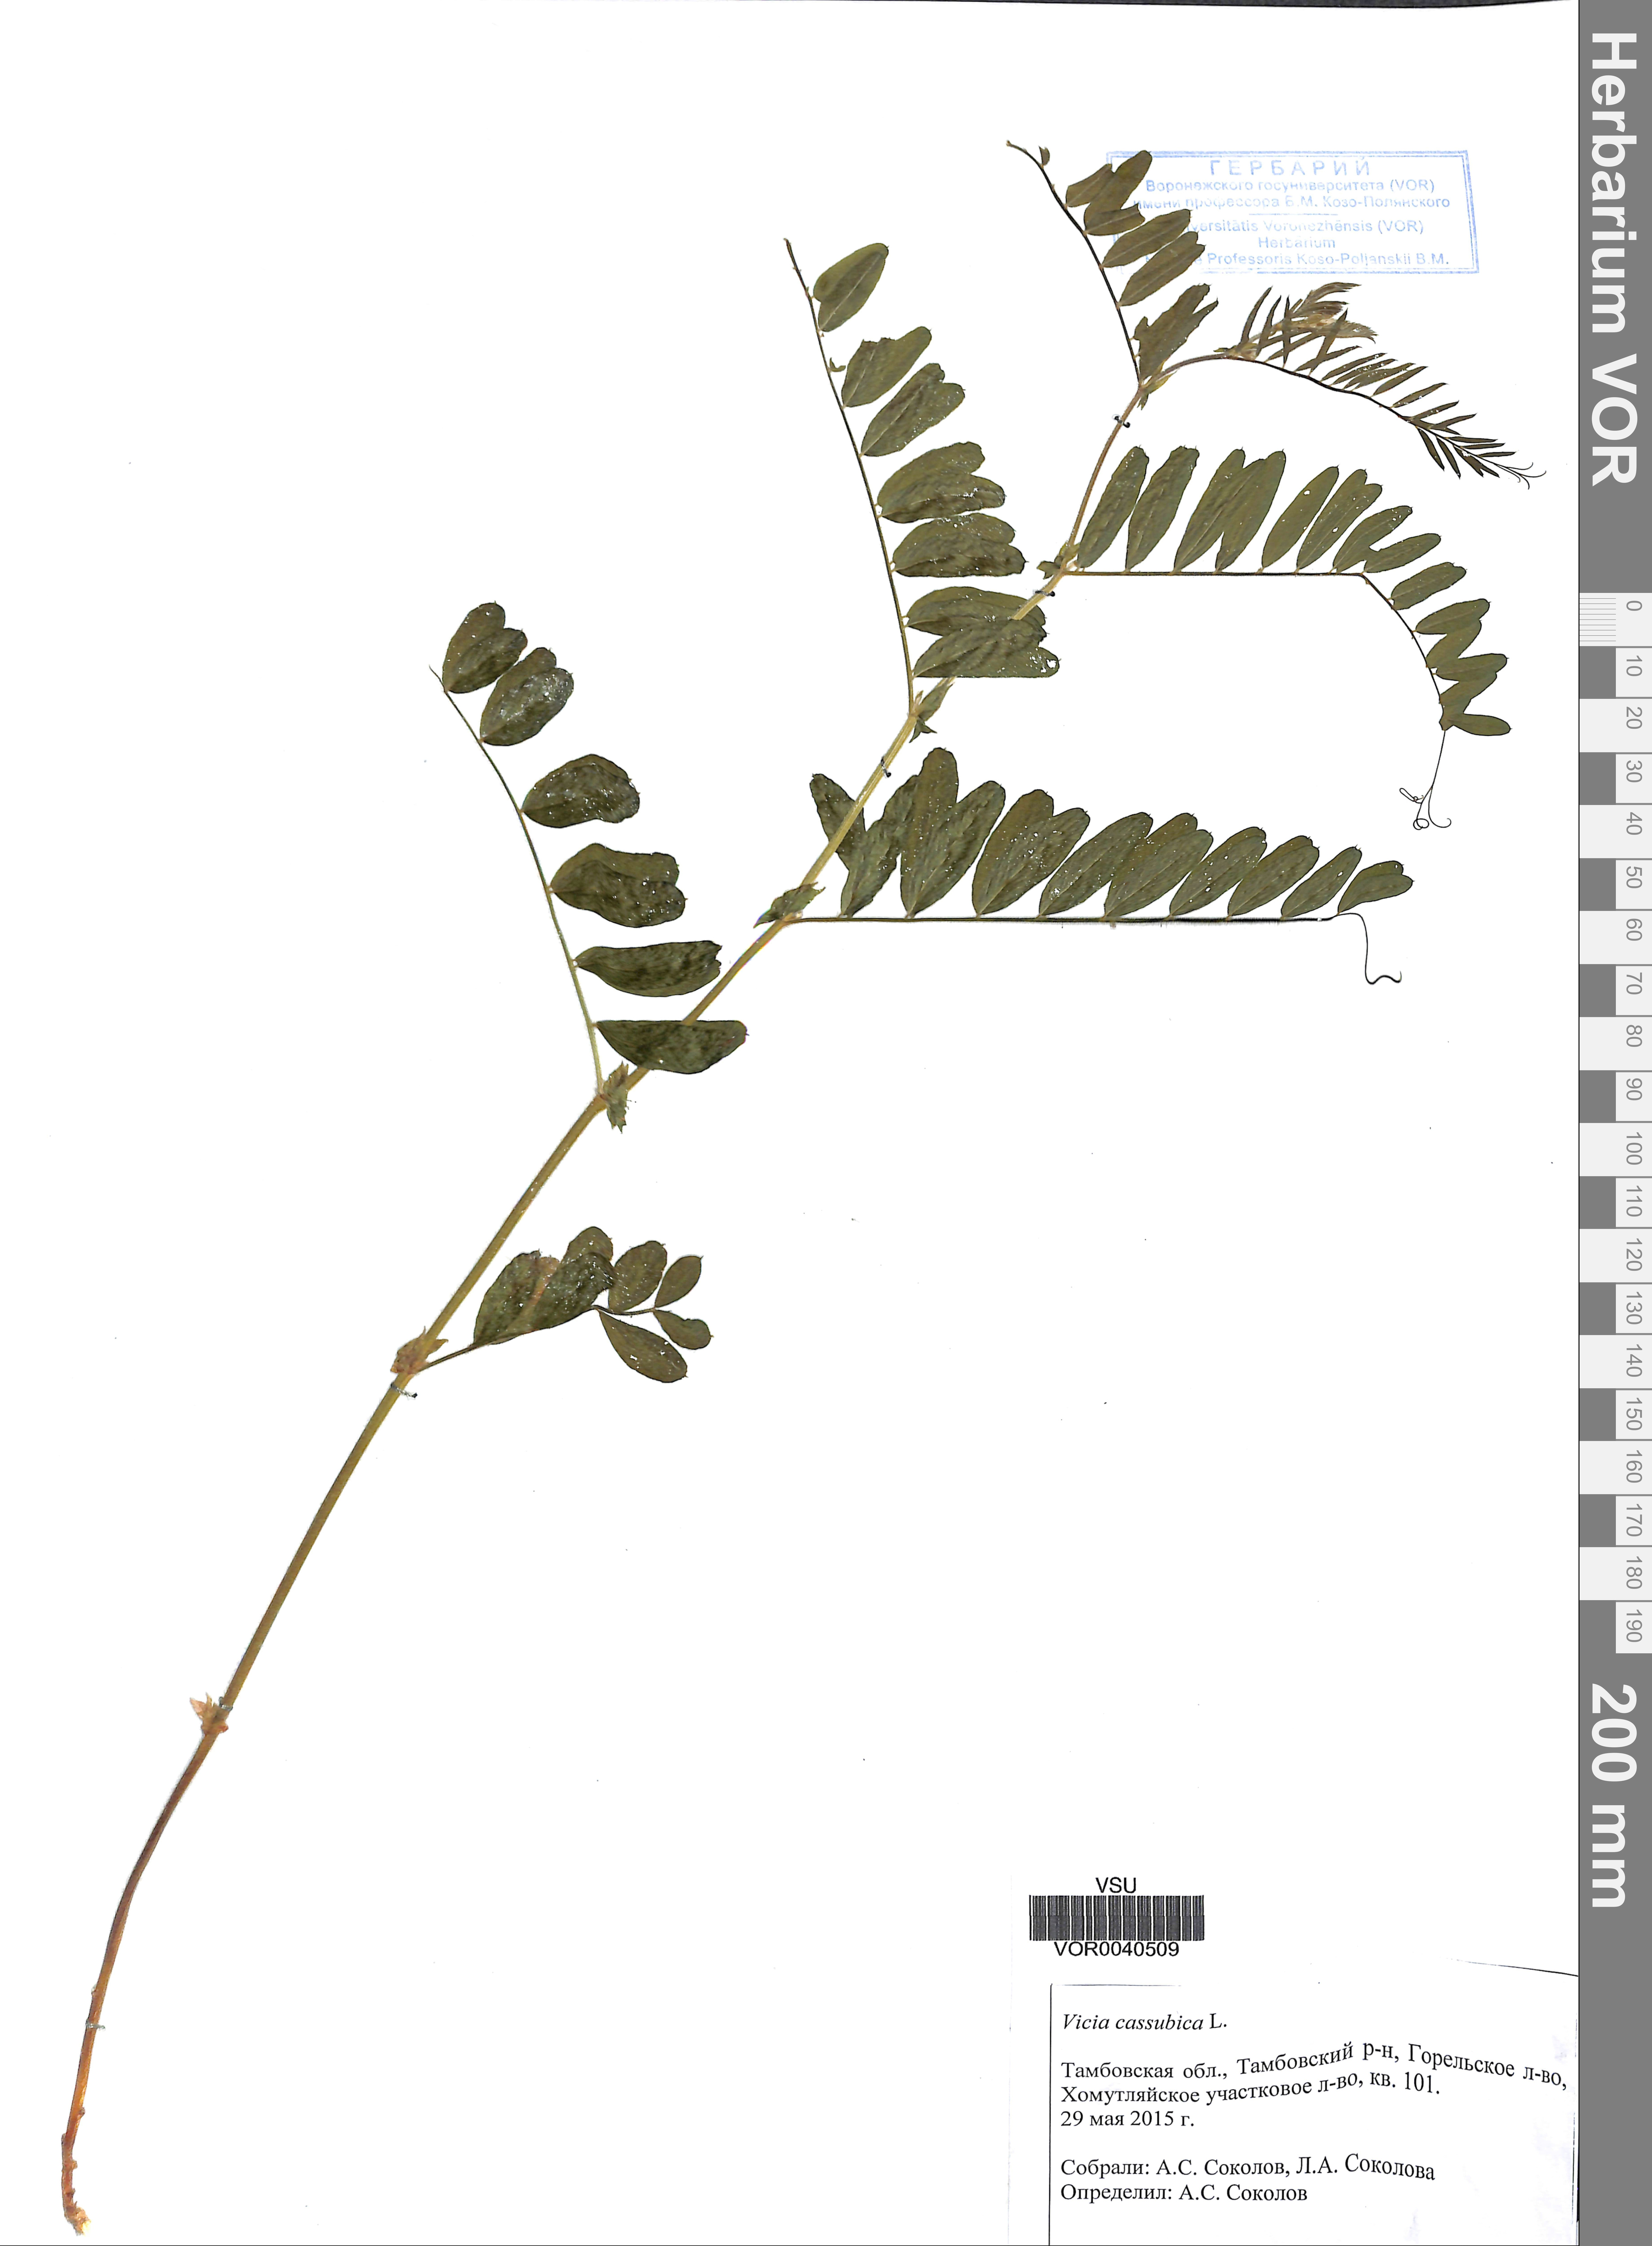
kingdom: Plantae
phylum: Tracheophyta
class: Magnoliopsida
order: Fabales
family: Fabaceae
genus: Vicia
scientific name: Vicia cassubica
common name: Danzig vetch
